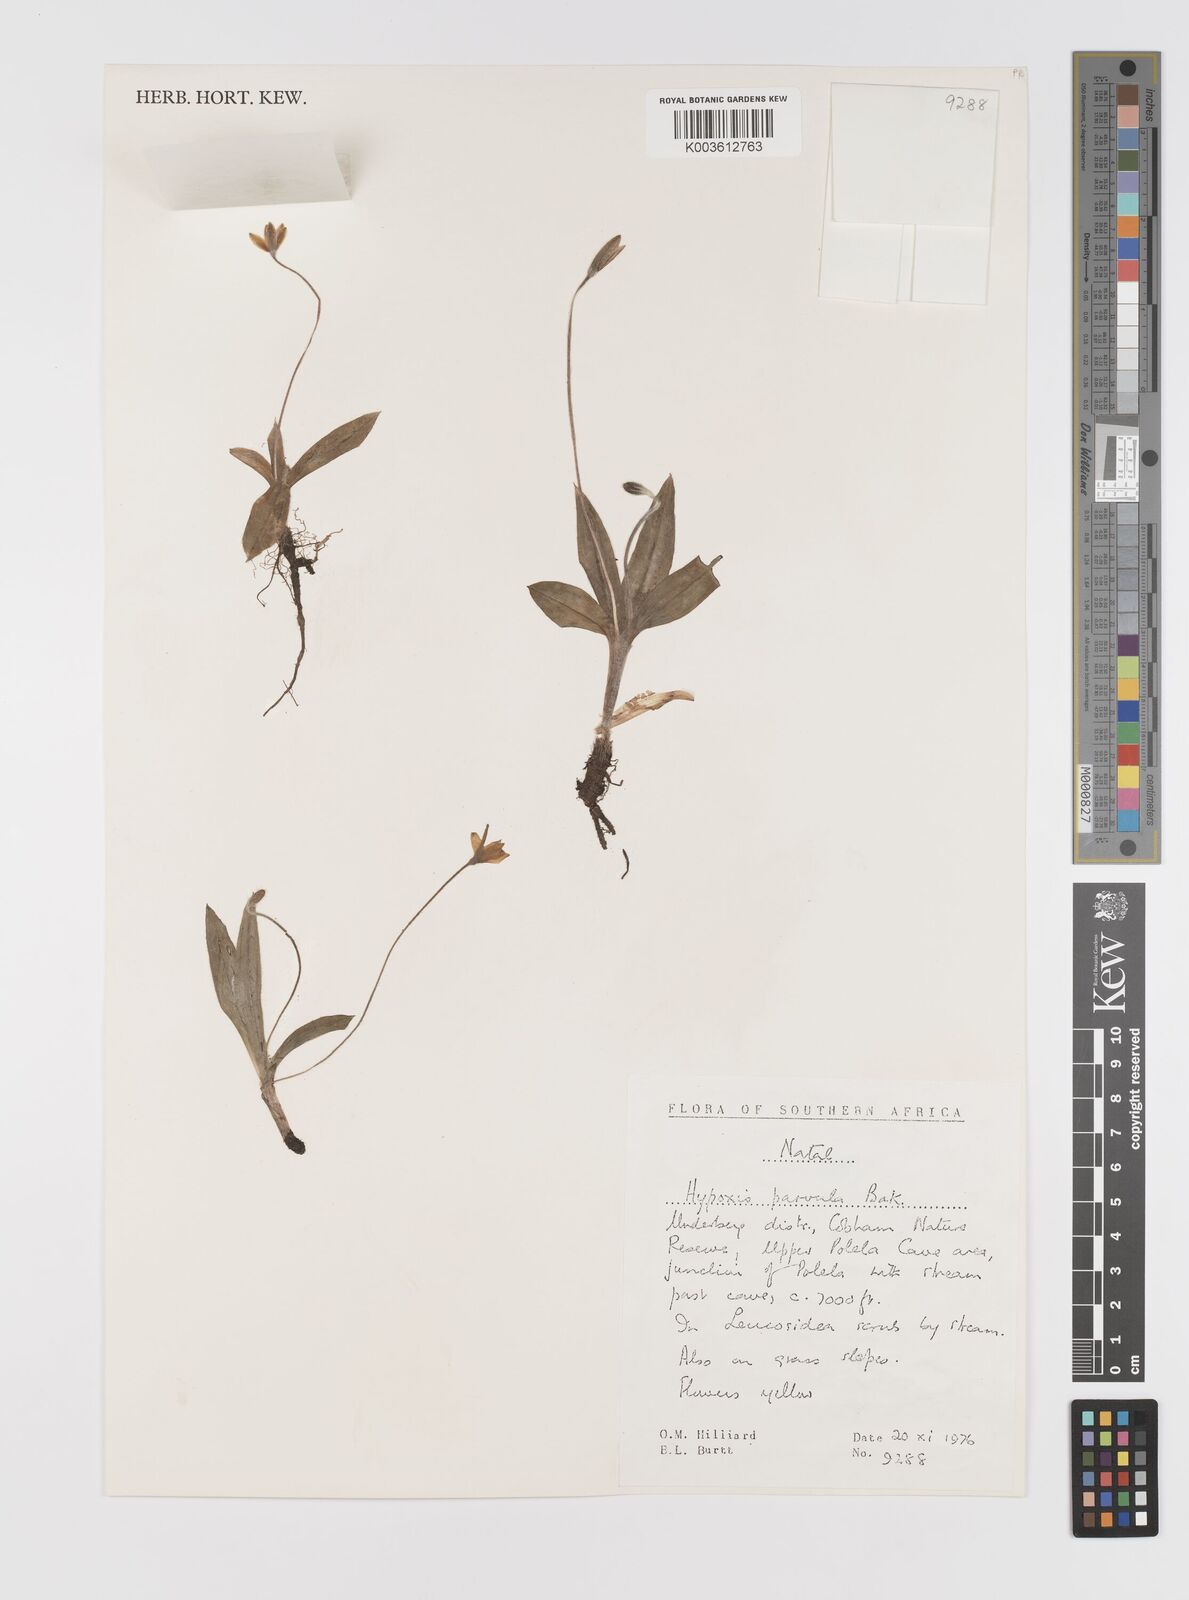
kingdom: Plantae
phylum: Tracheophyta
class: Liliopsida
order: Asparagales
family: Hypoxidaceae
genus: Hypoxis
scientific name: Hypoxis parvula
